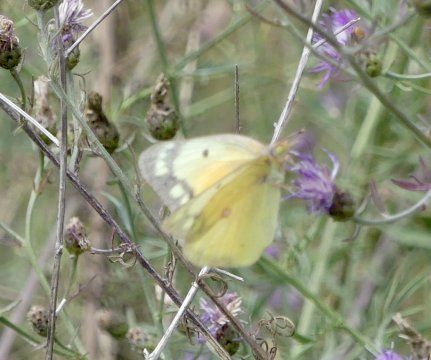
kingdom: Animalia
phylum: Arthropoda
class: Insecta
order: Lepidoptera
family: Pieridae
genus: Colias
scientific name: Colias eurytheme
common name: Orange Sulphur
